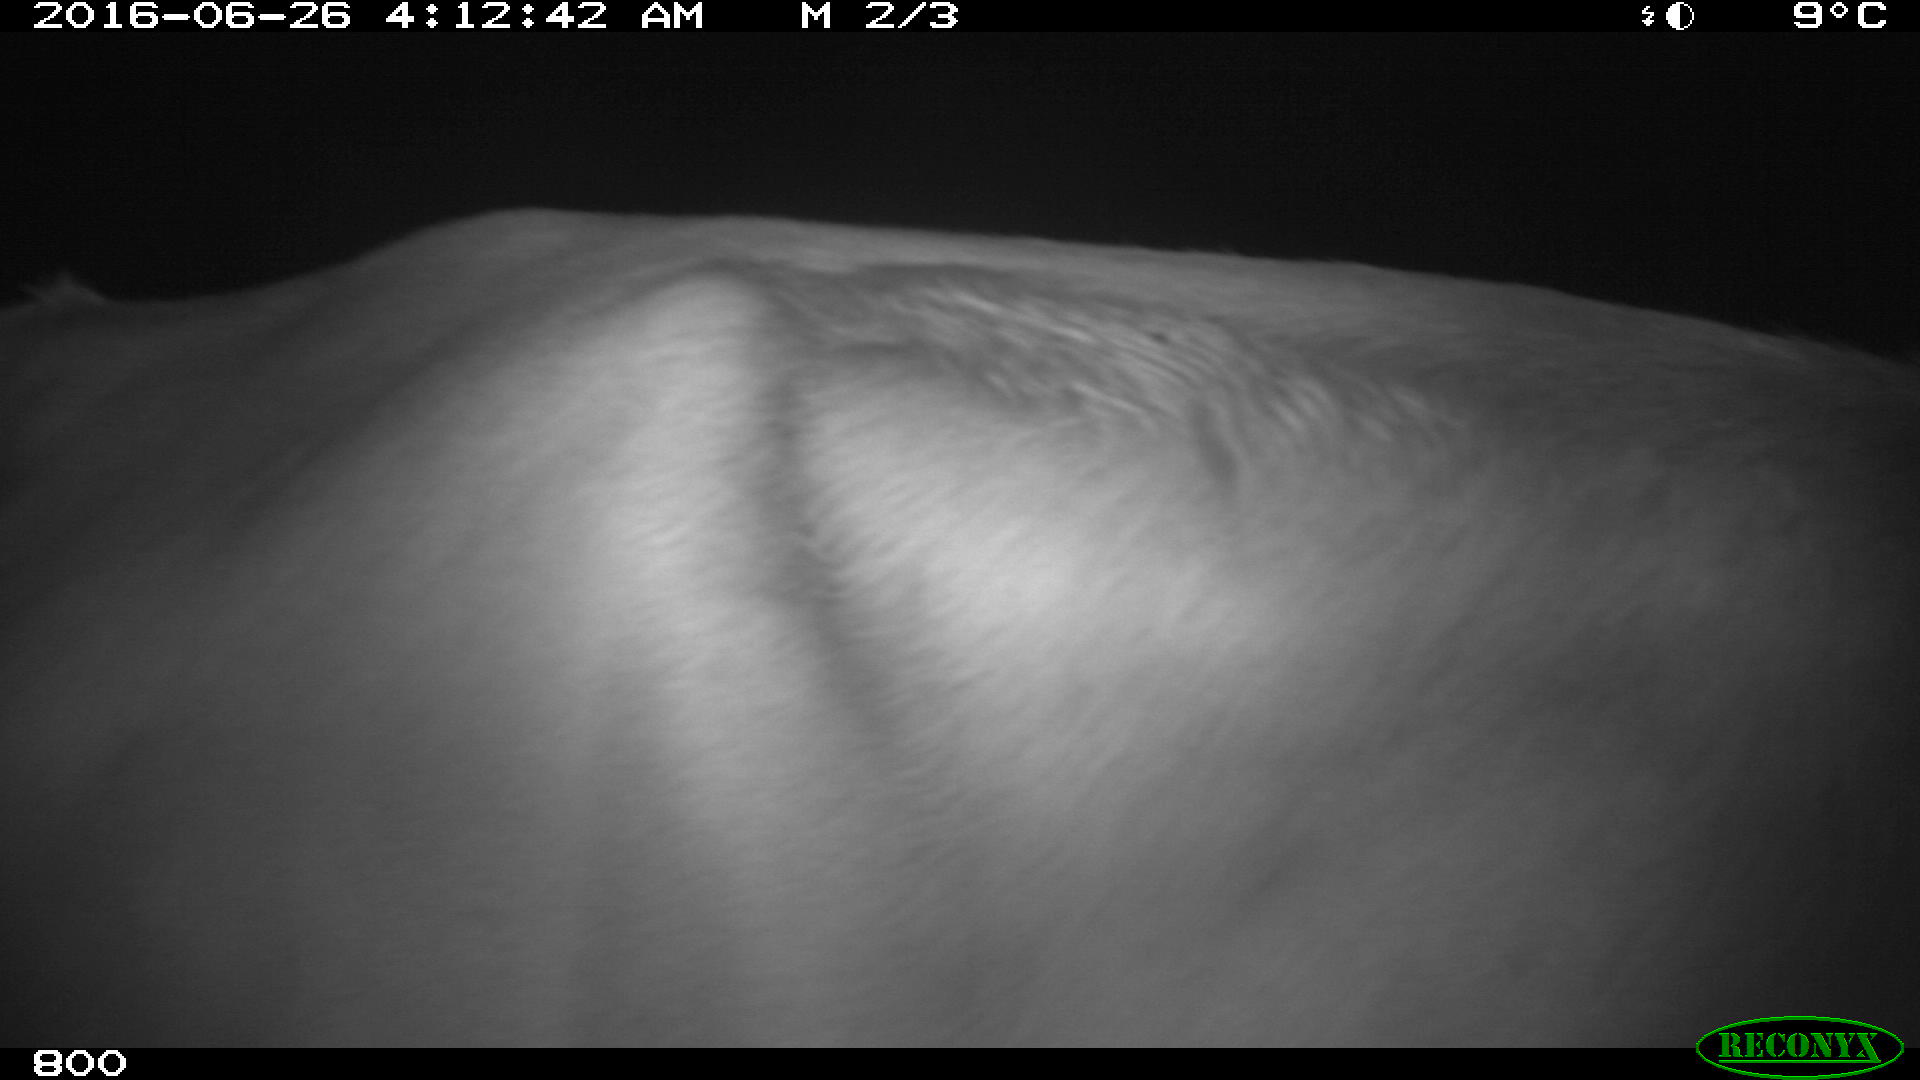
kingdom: Animalia
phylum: Chordata
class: Mammalia
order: Artiodactyla
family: Bovidae
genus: Bos
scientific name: Bos taurus
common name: Domesticated cattle
